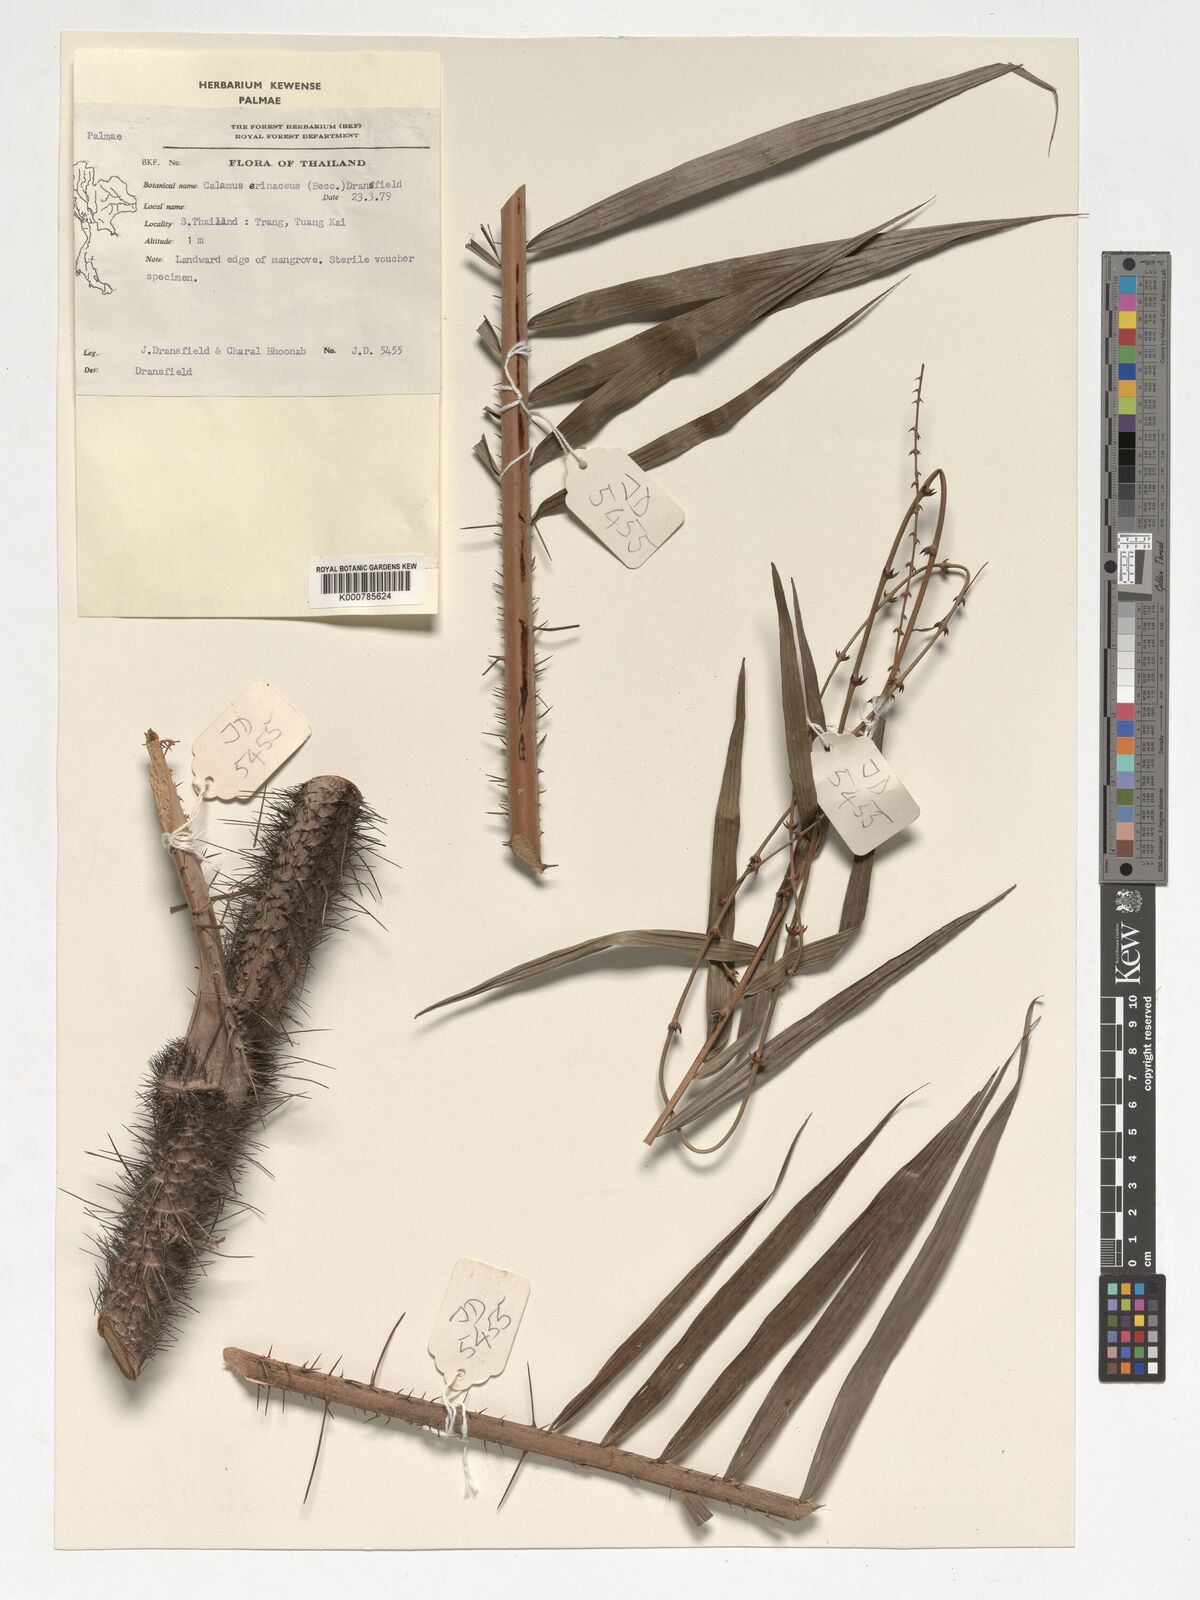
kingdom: Plantae
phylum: Tracheophyta
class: Liliopsida
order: Arecales
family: Arecaceae
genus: Calamus
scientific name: Calamus erinaceus
